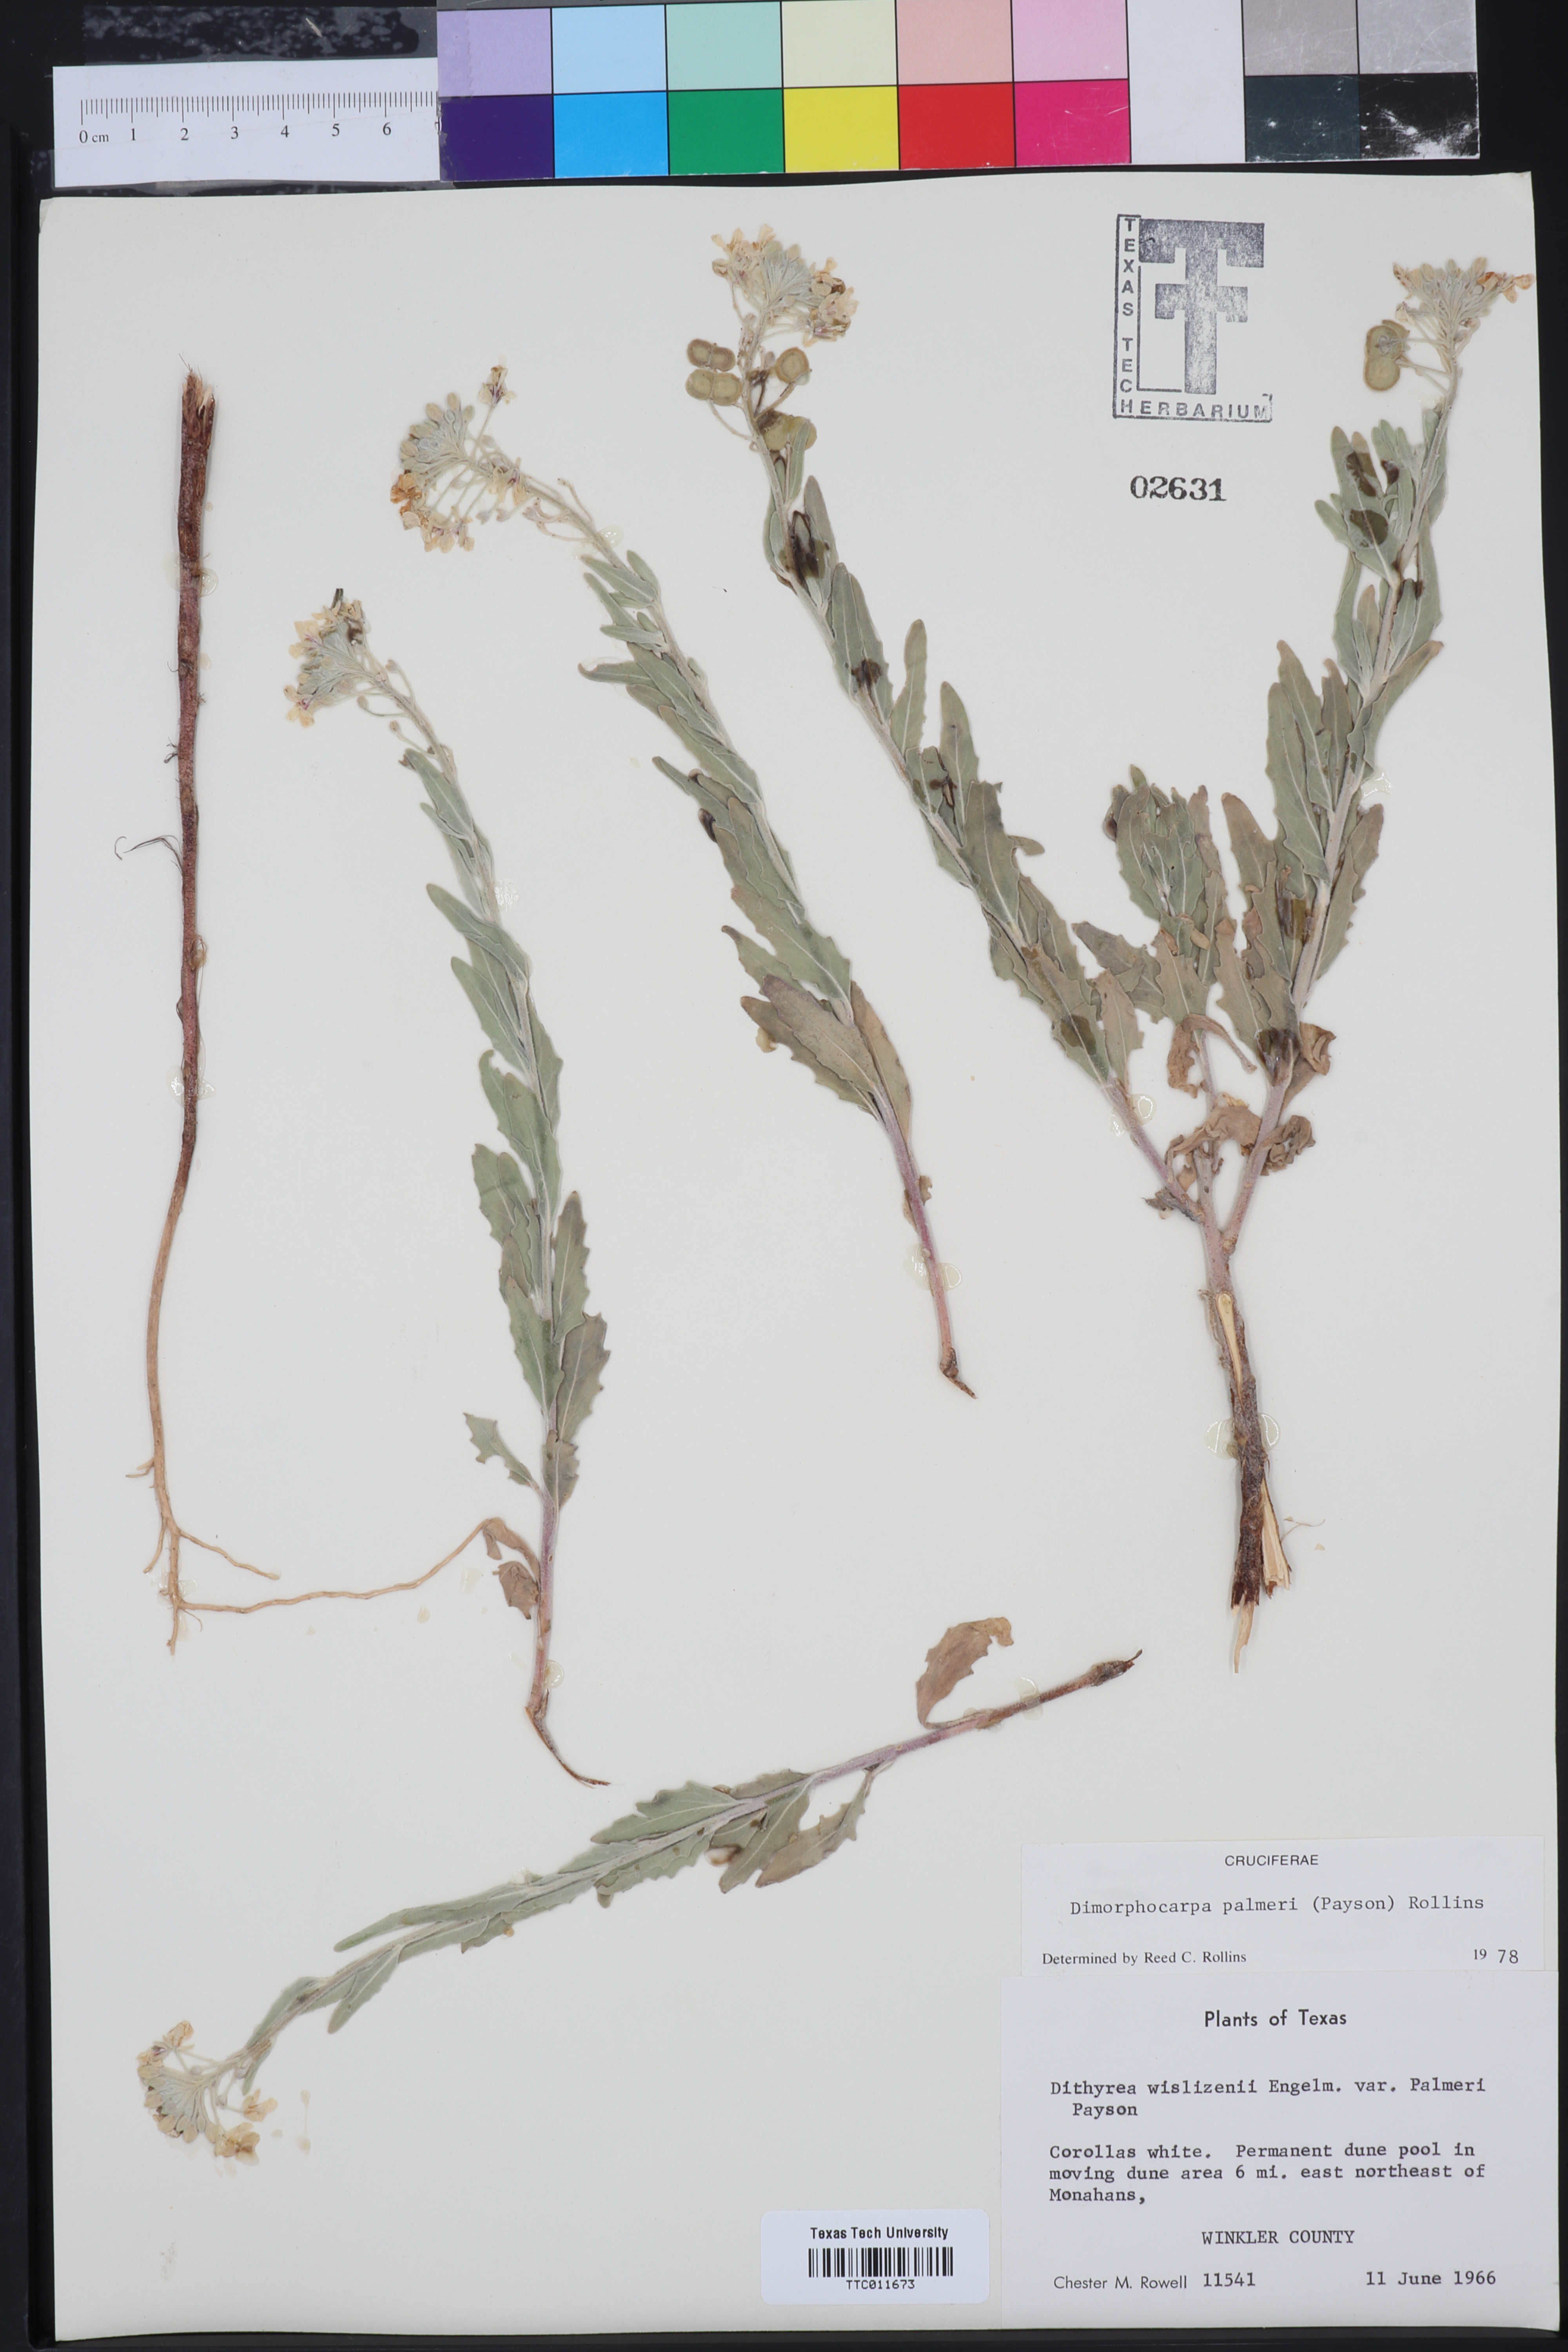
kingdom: Plantae
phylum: Tracheophyta
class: Magnoliopsida
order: Brassicales
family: Brassicaceae
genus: Dimorphocarpa
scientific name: Dimorphocarpa candicans
